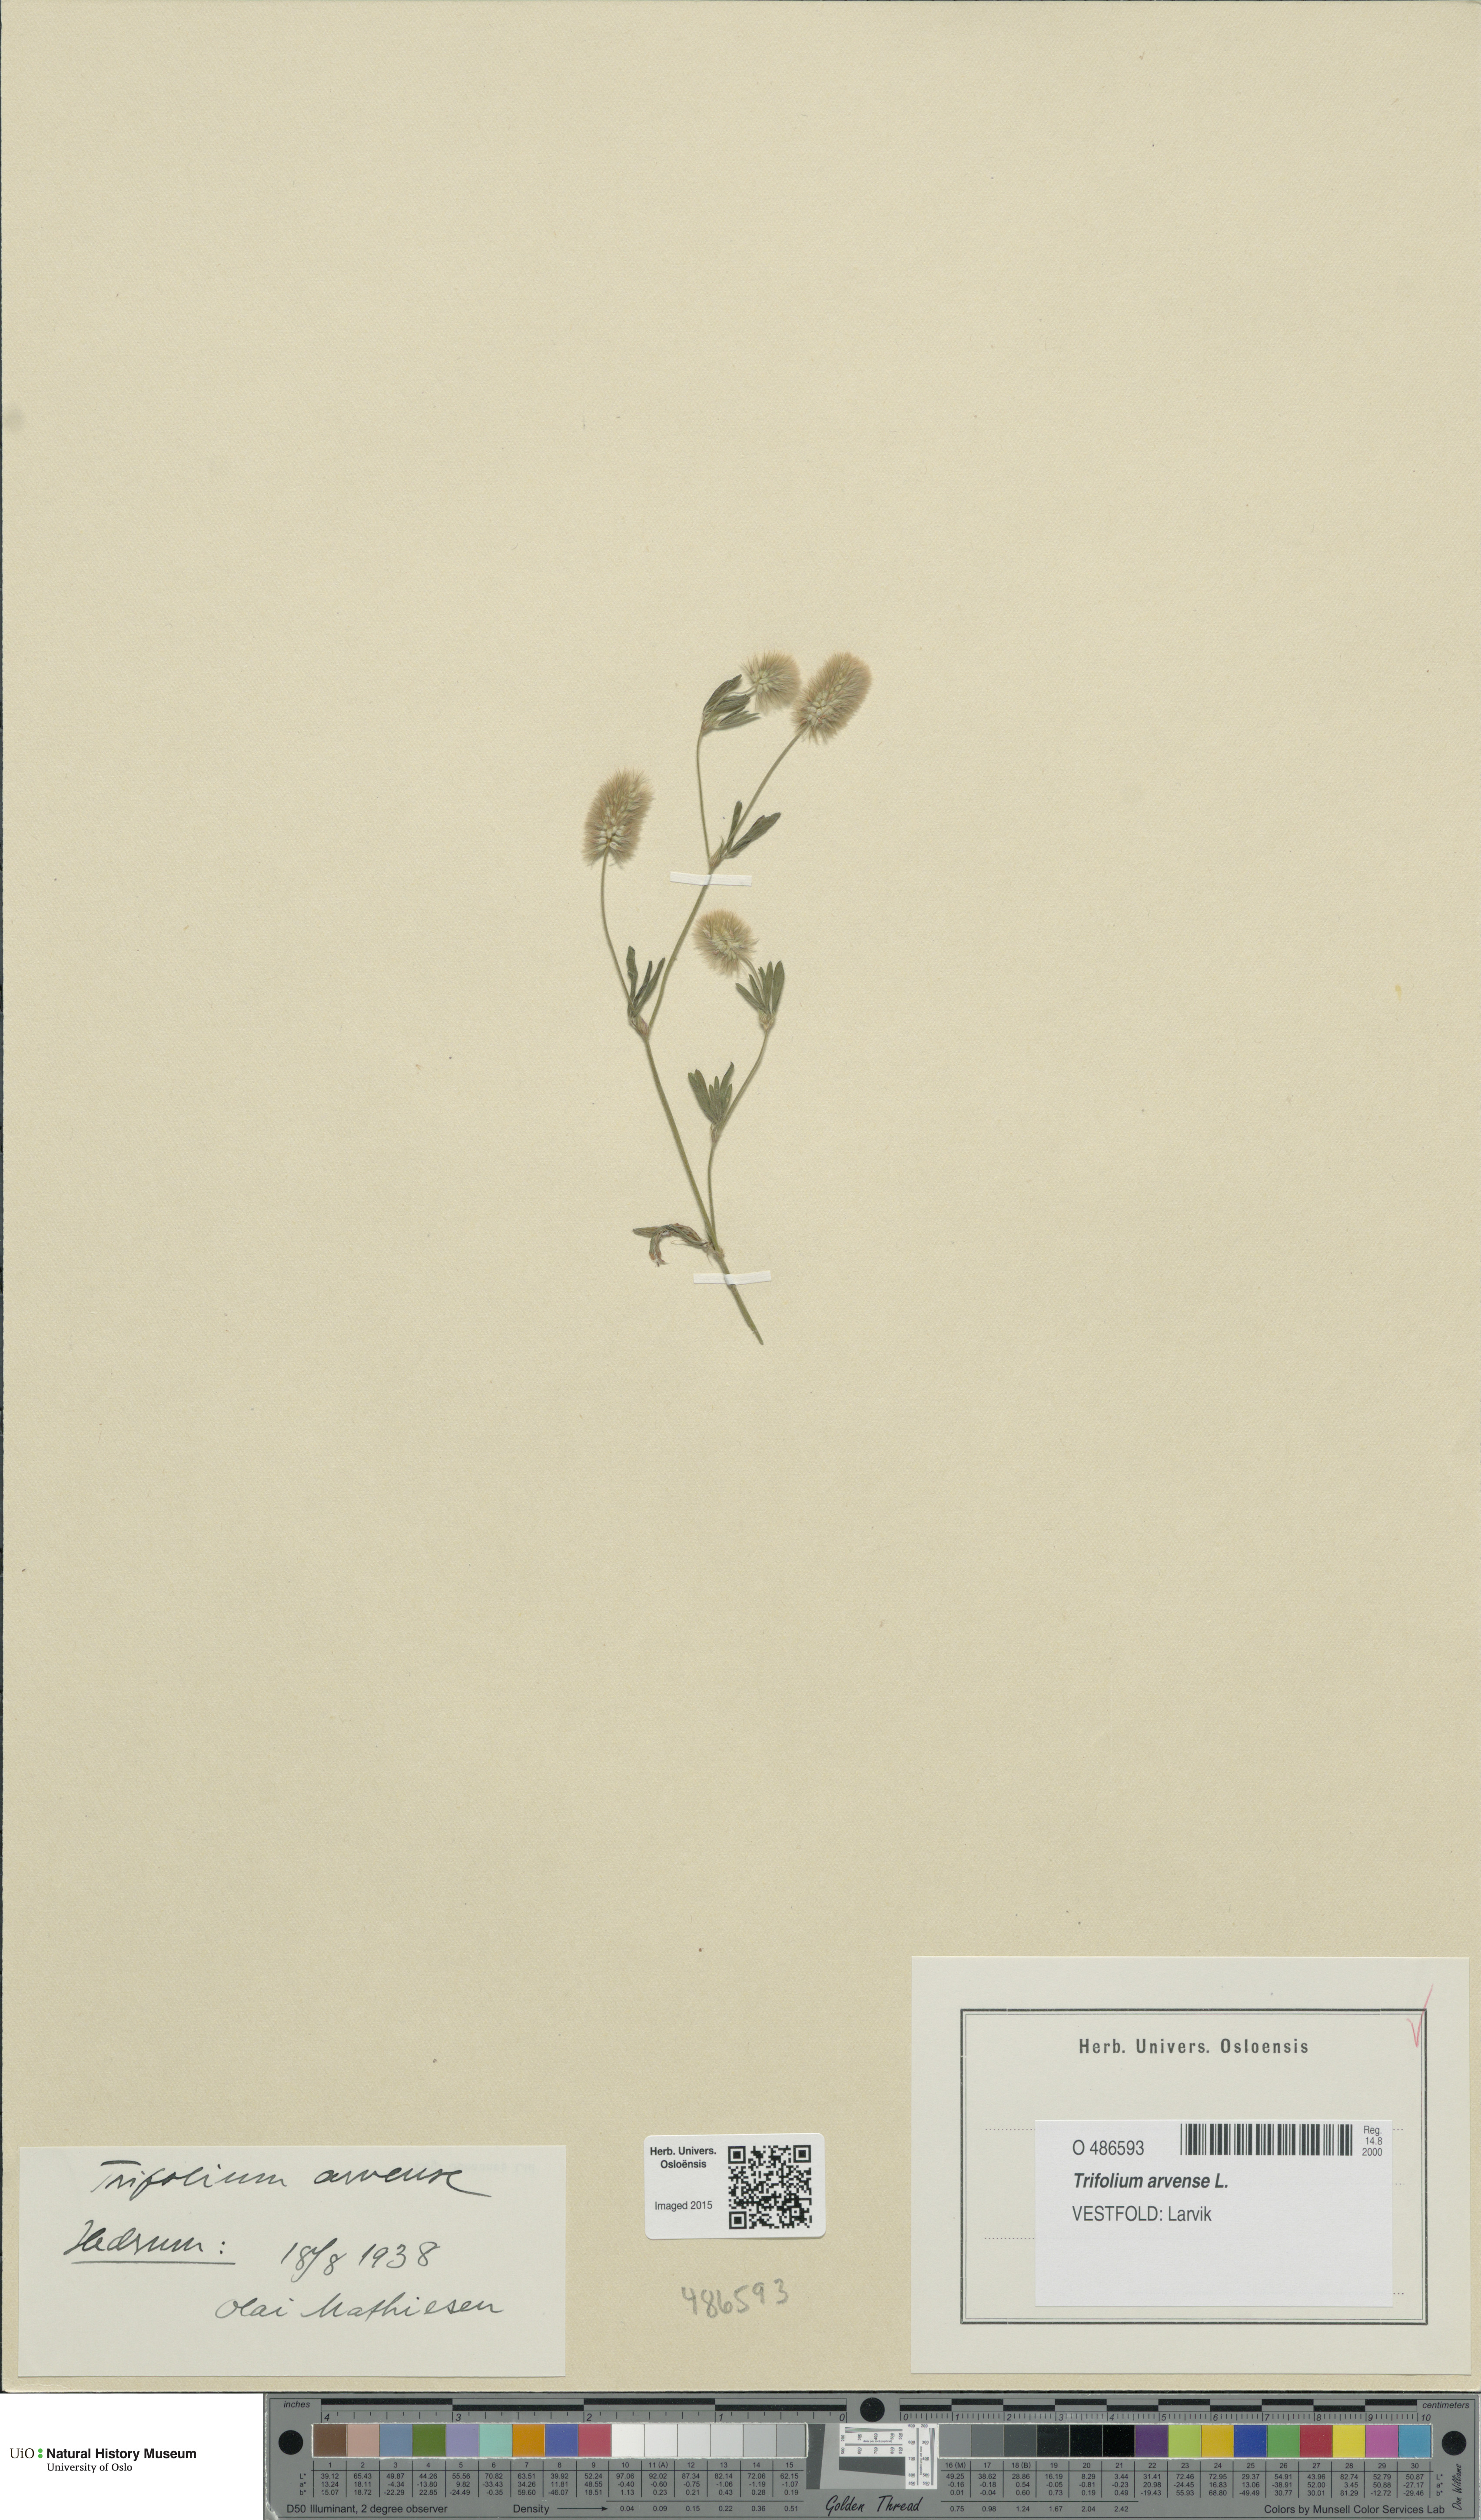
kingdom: Plantae
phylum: Tracheophyta
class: Magnoliopsida
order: Fabales
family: Fabaceae
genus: Trifolium
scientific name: Trifolium arvense
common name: Hare's-foot clover
